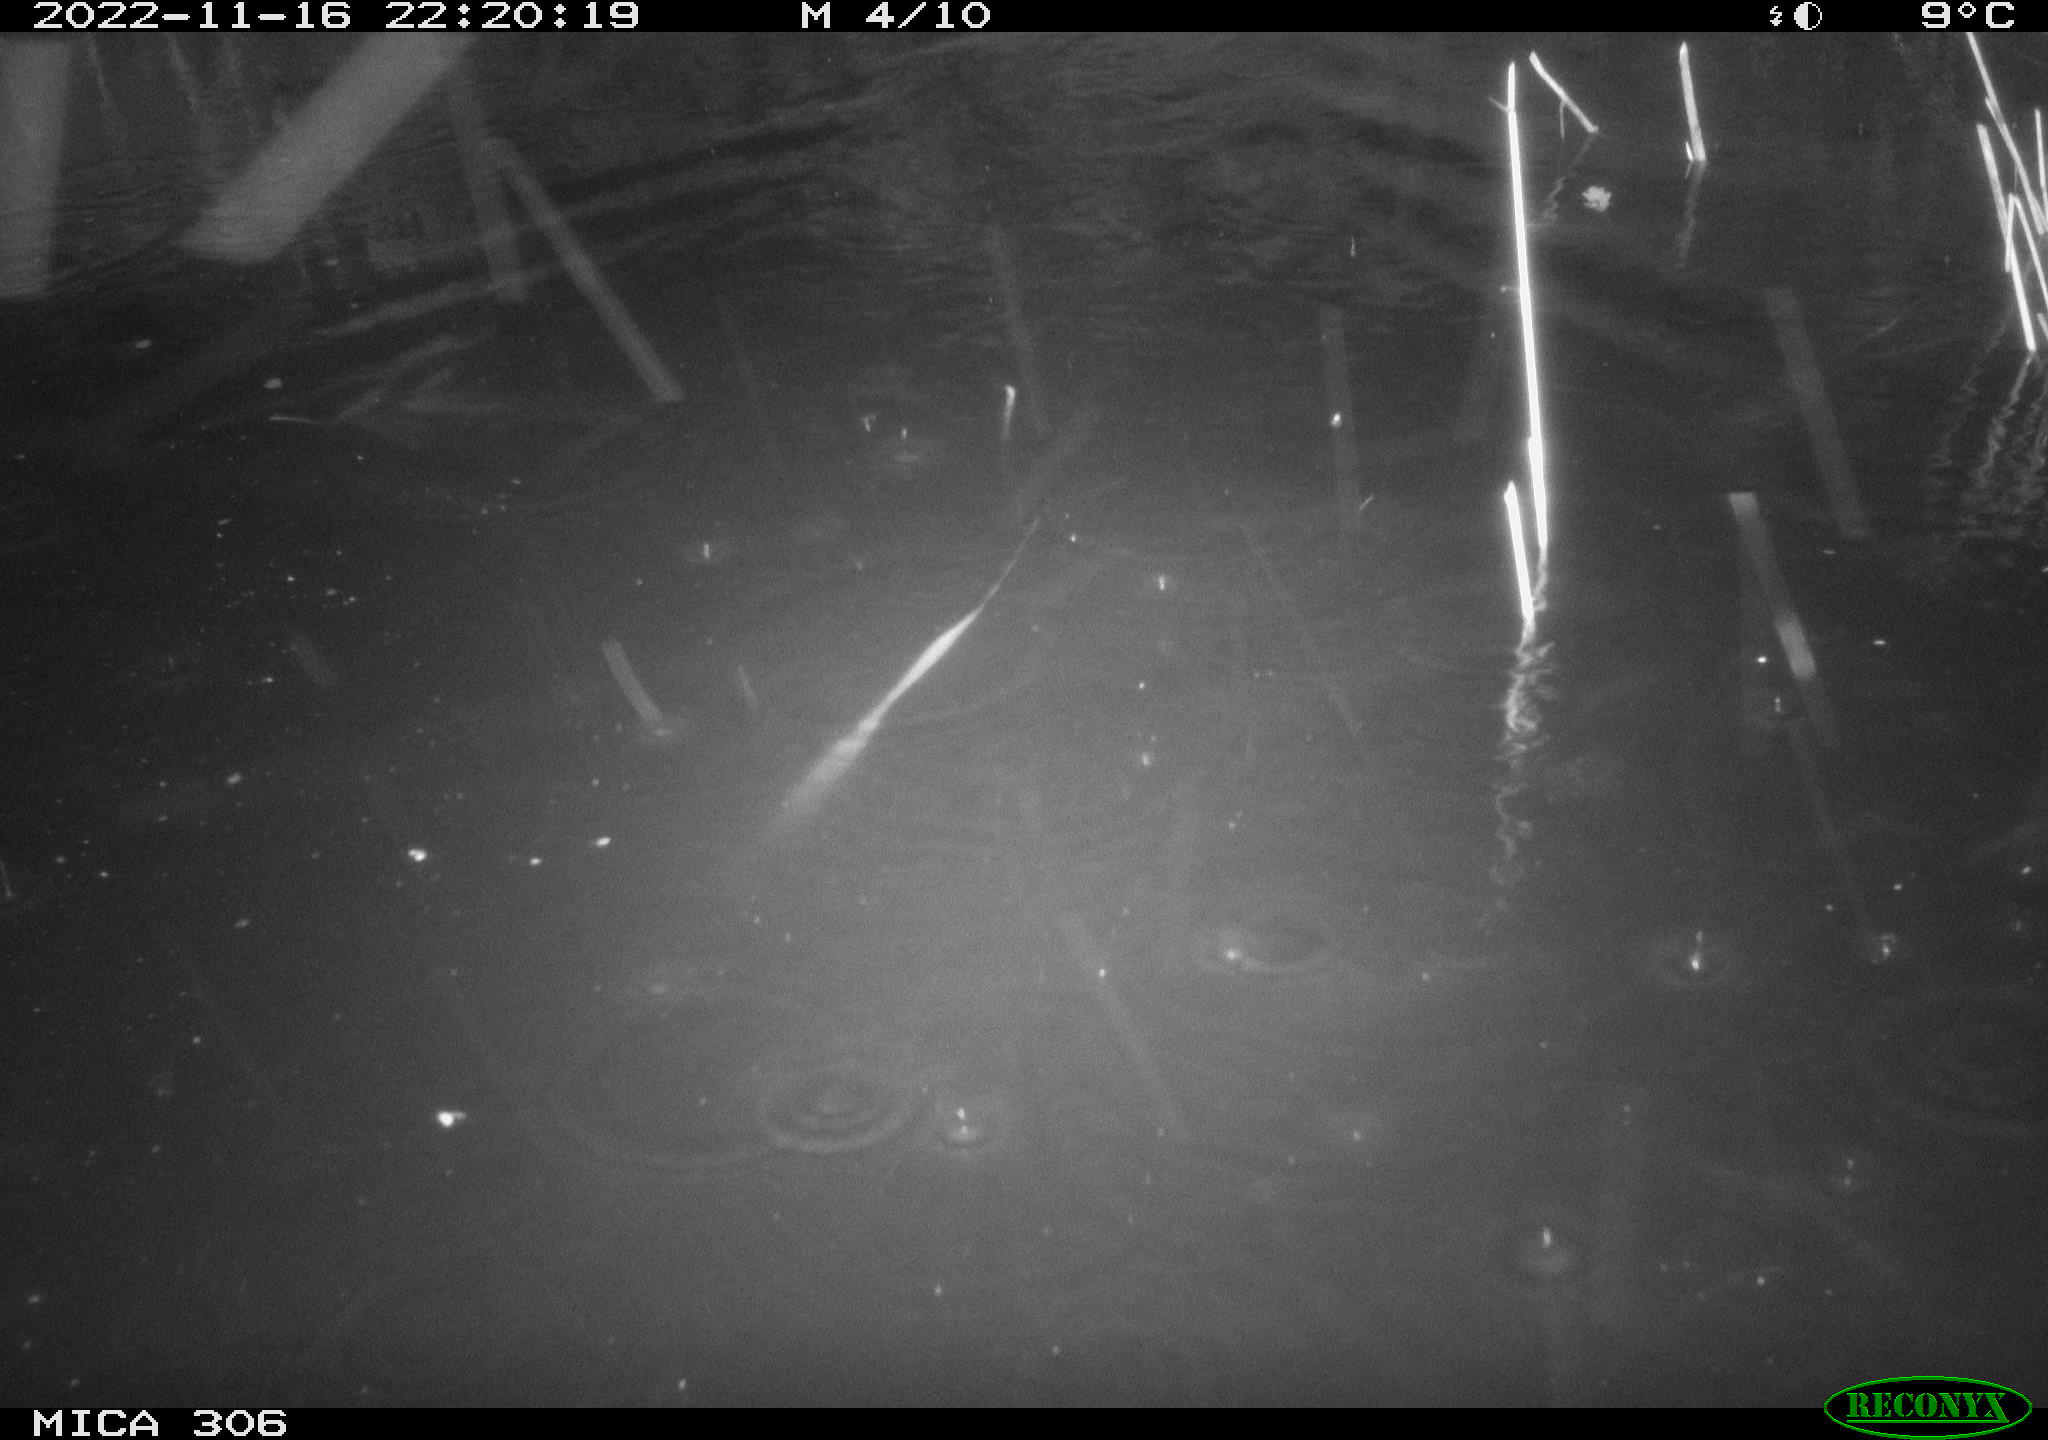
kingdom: Animalia
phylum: Chordata
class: Mammalia
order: Rodentia
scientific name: Rodentia
